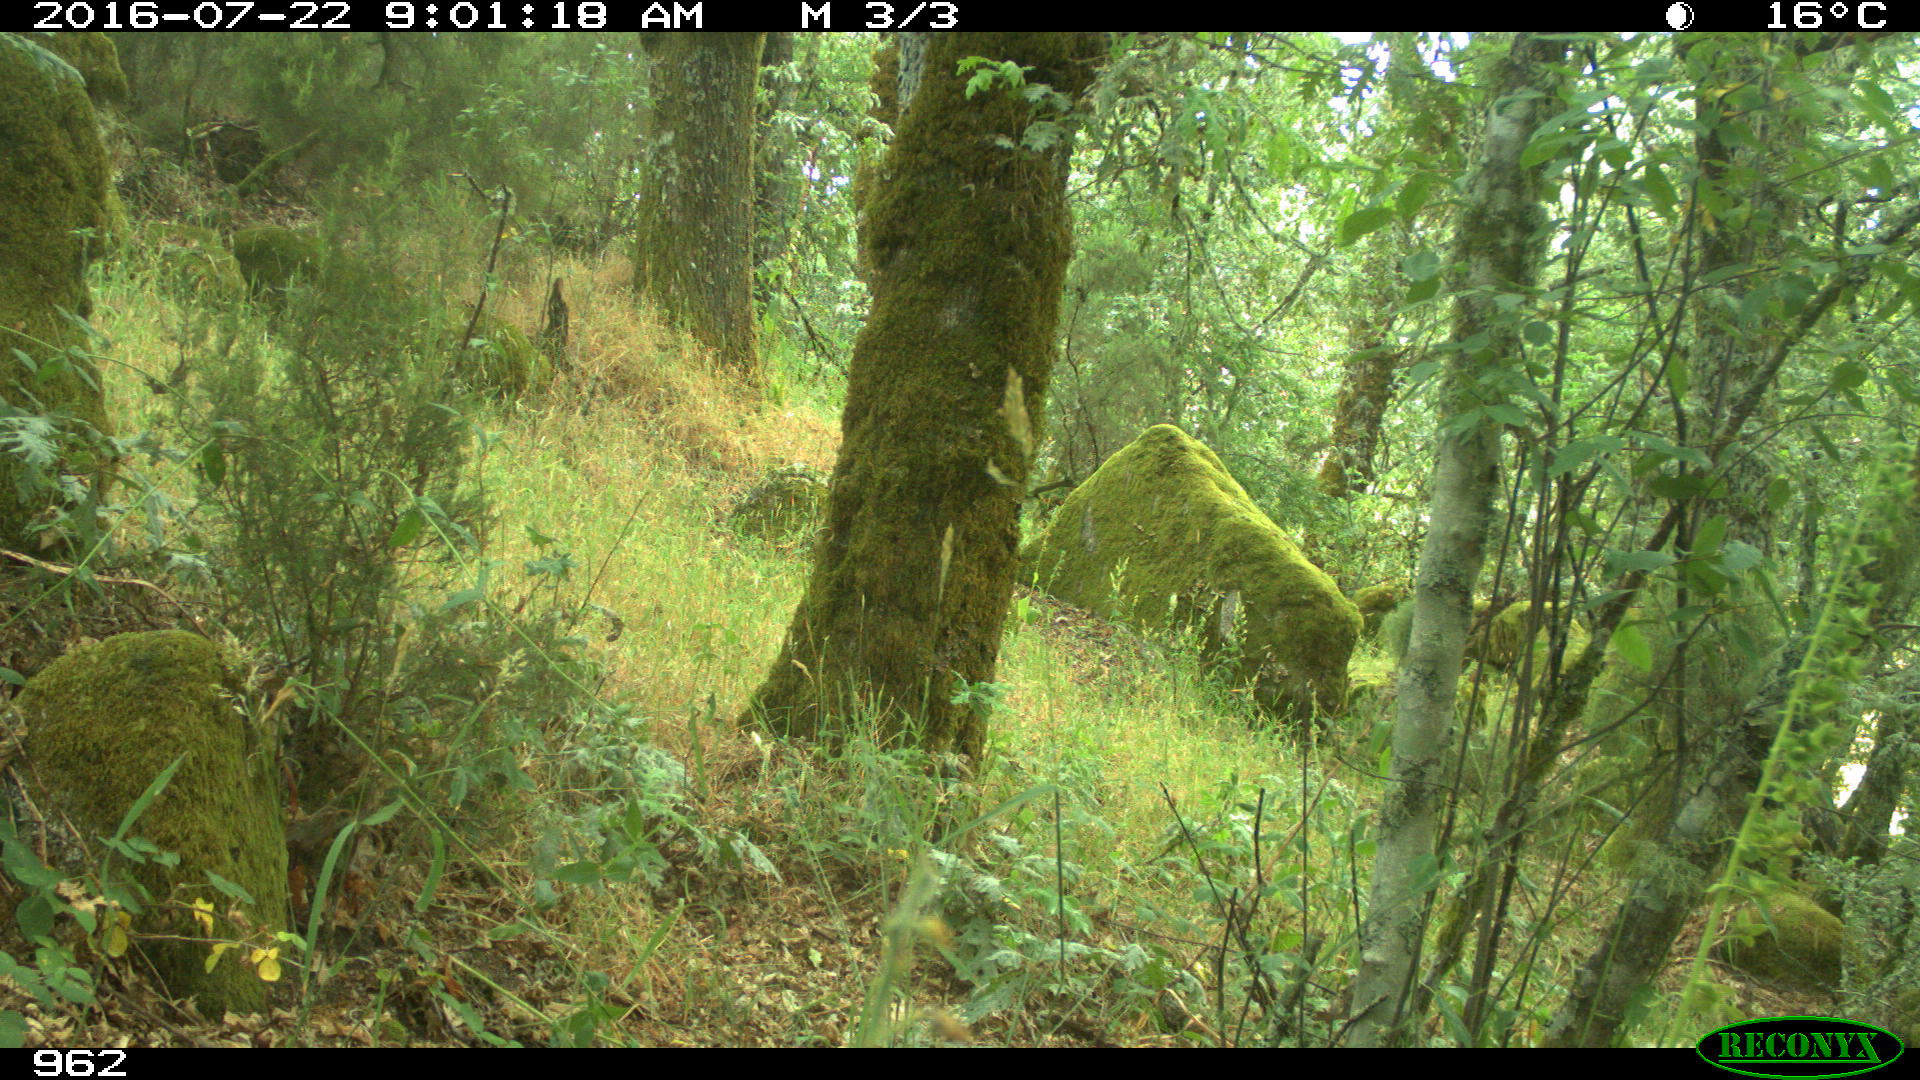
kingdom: Animalia
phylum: Chordata
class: Mammalia
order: Artiodactyla
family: Bovidae
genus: Ovis
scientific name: Ovis aries
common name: Domestic sheep
